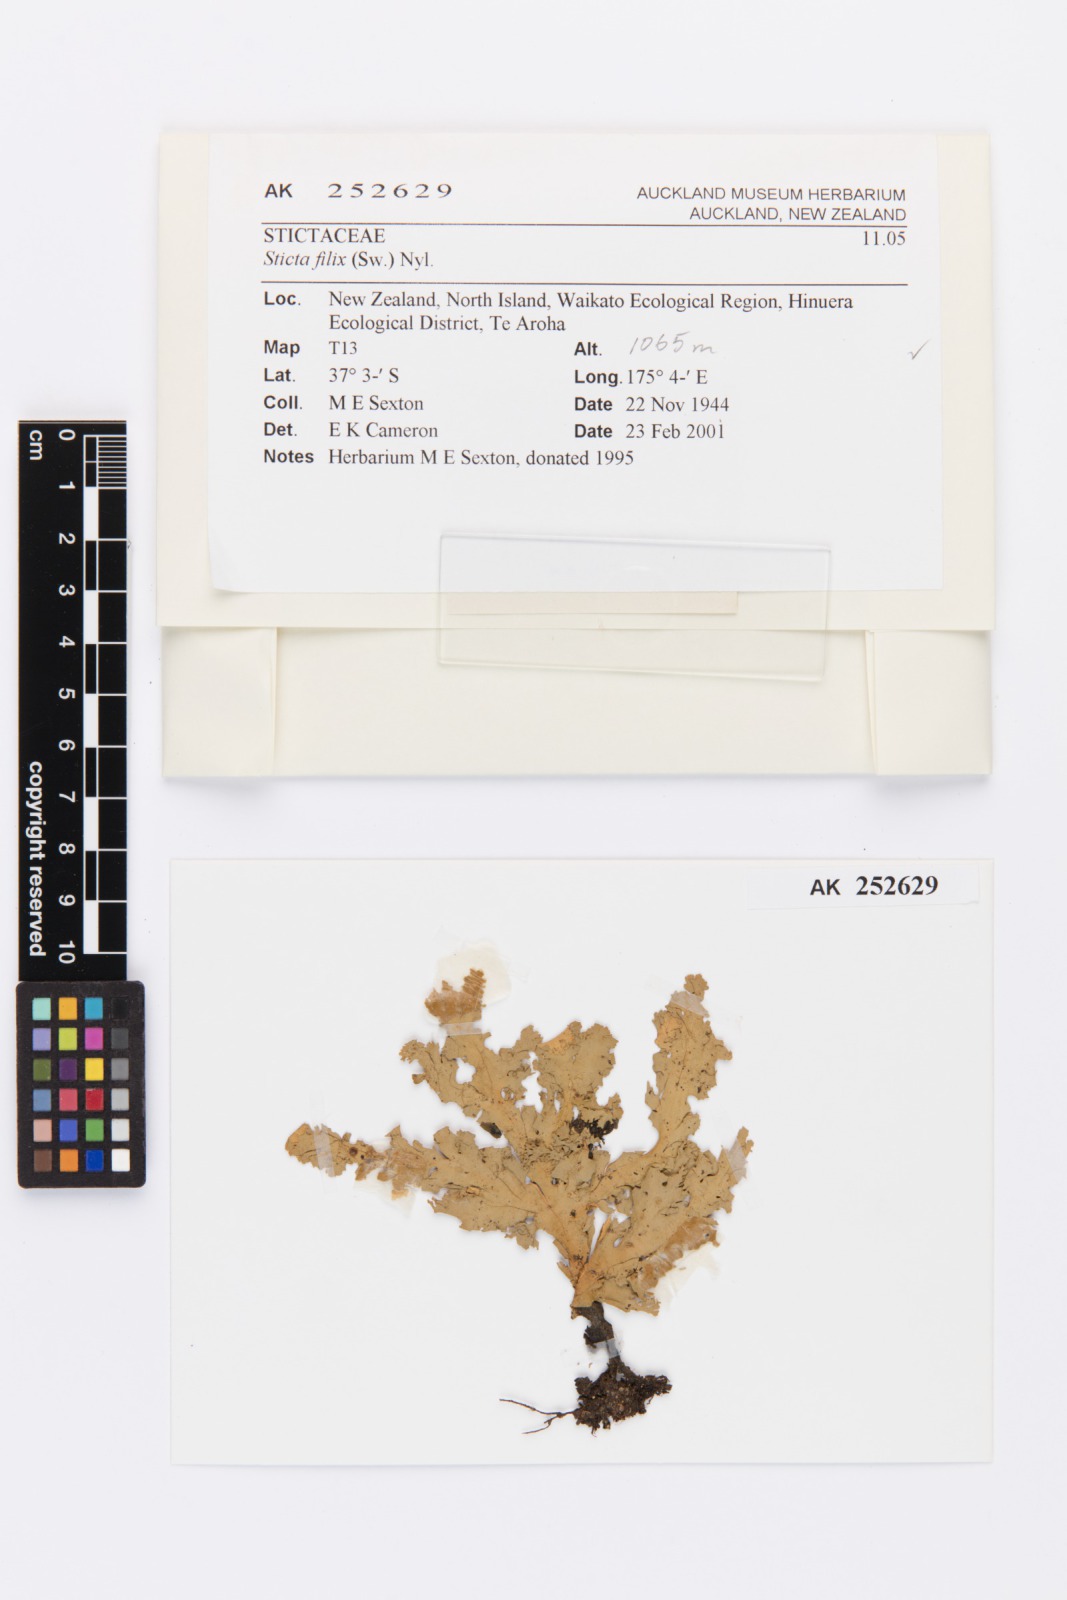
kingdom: Fungi
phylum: Ascomycota
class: Lecanoromycetes
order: Peltigerales
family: Lobariaceae
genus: Sticta
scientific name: Sticta filix
